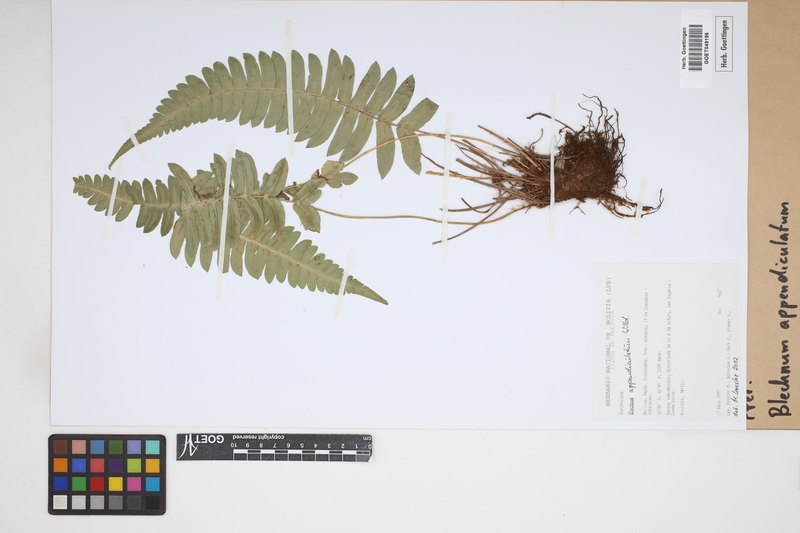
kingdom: Plantae
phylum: Tracheophyta
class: Polypodiopsida
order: Polypodiales
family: Blechnaceae
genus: Blechnum
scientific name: Blechnum appendiculatum
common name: Palm fern
